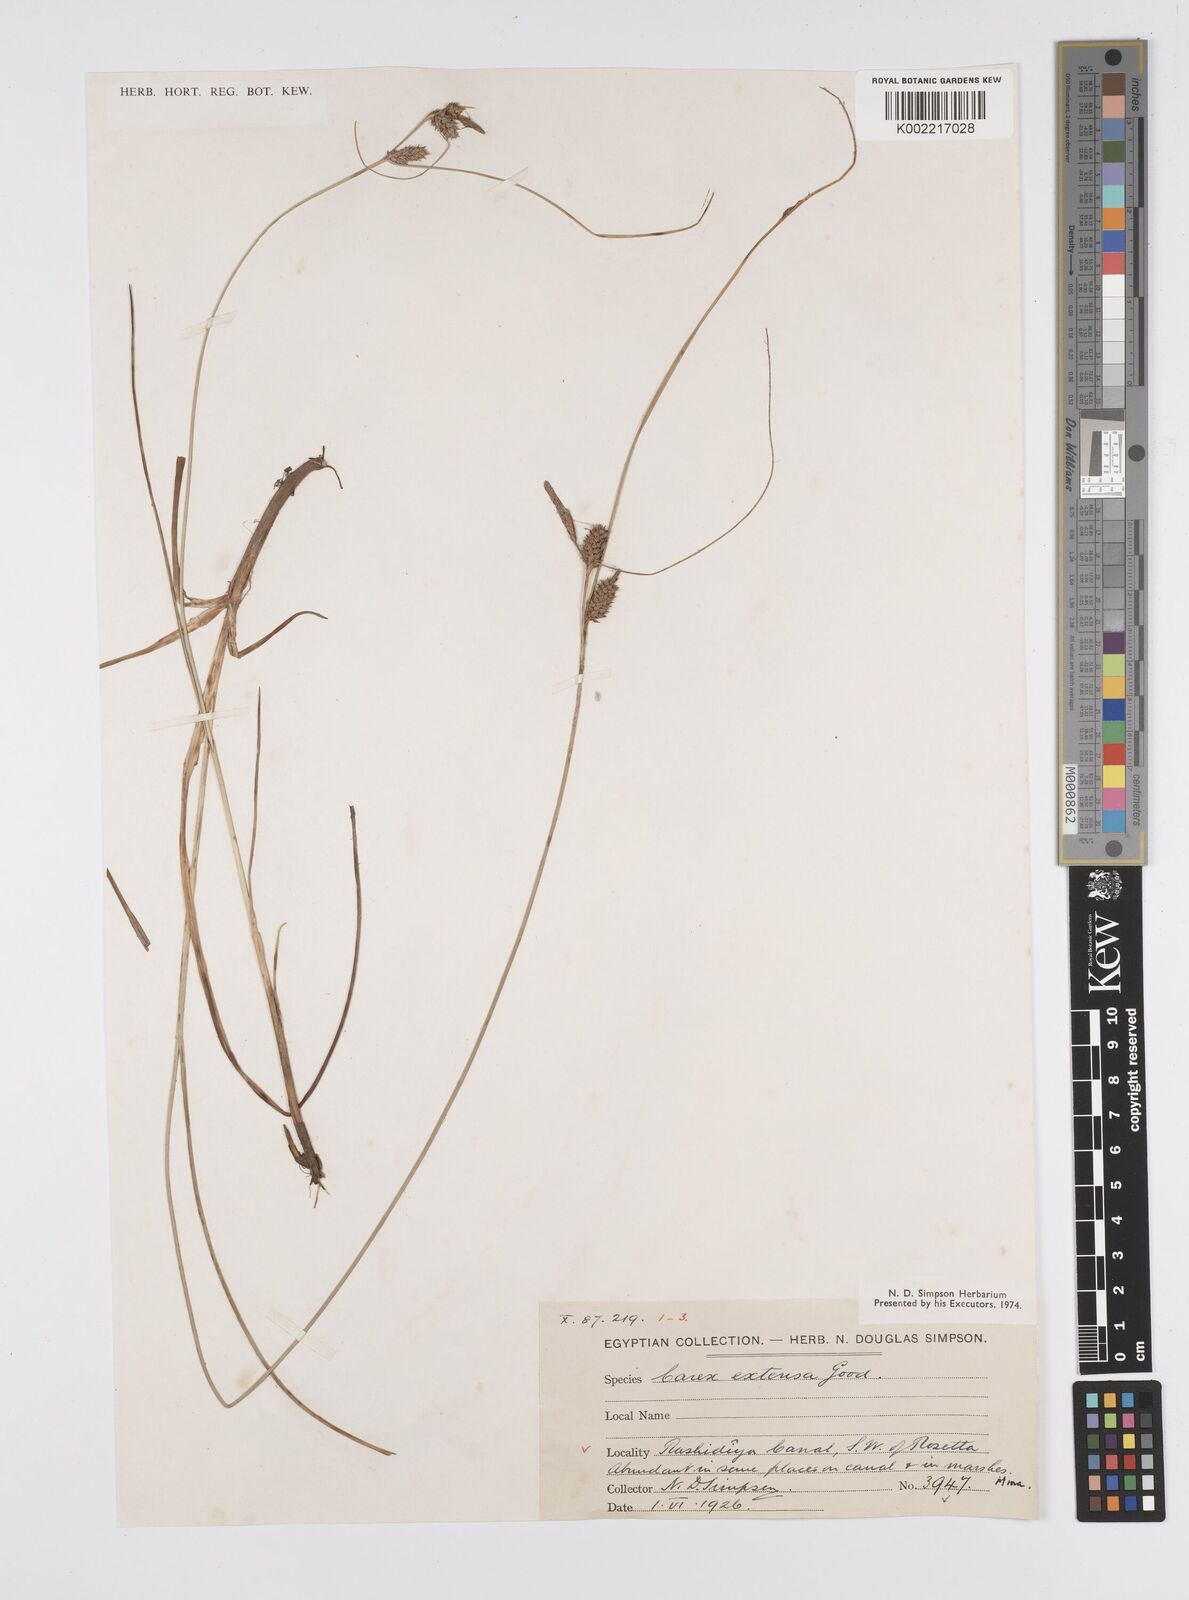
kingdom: Plantae
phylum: Tracheophyta
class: Liliopsida
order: Poales
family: Cyperaceae
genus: Carex
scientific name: Carex extensa
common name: Long-bracted sedge
